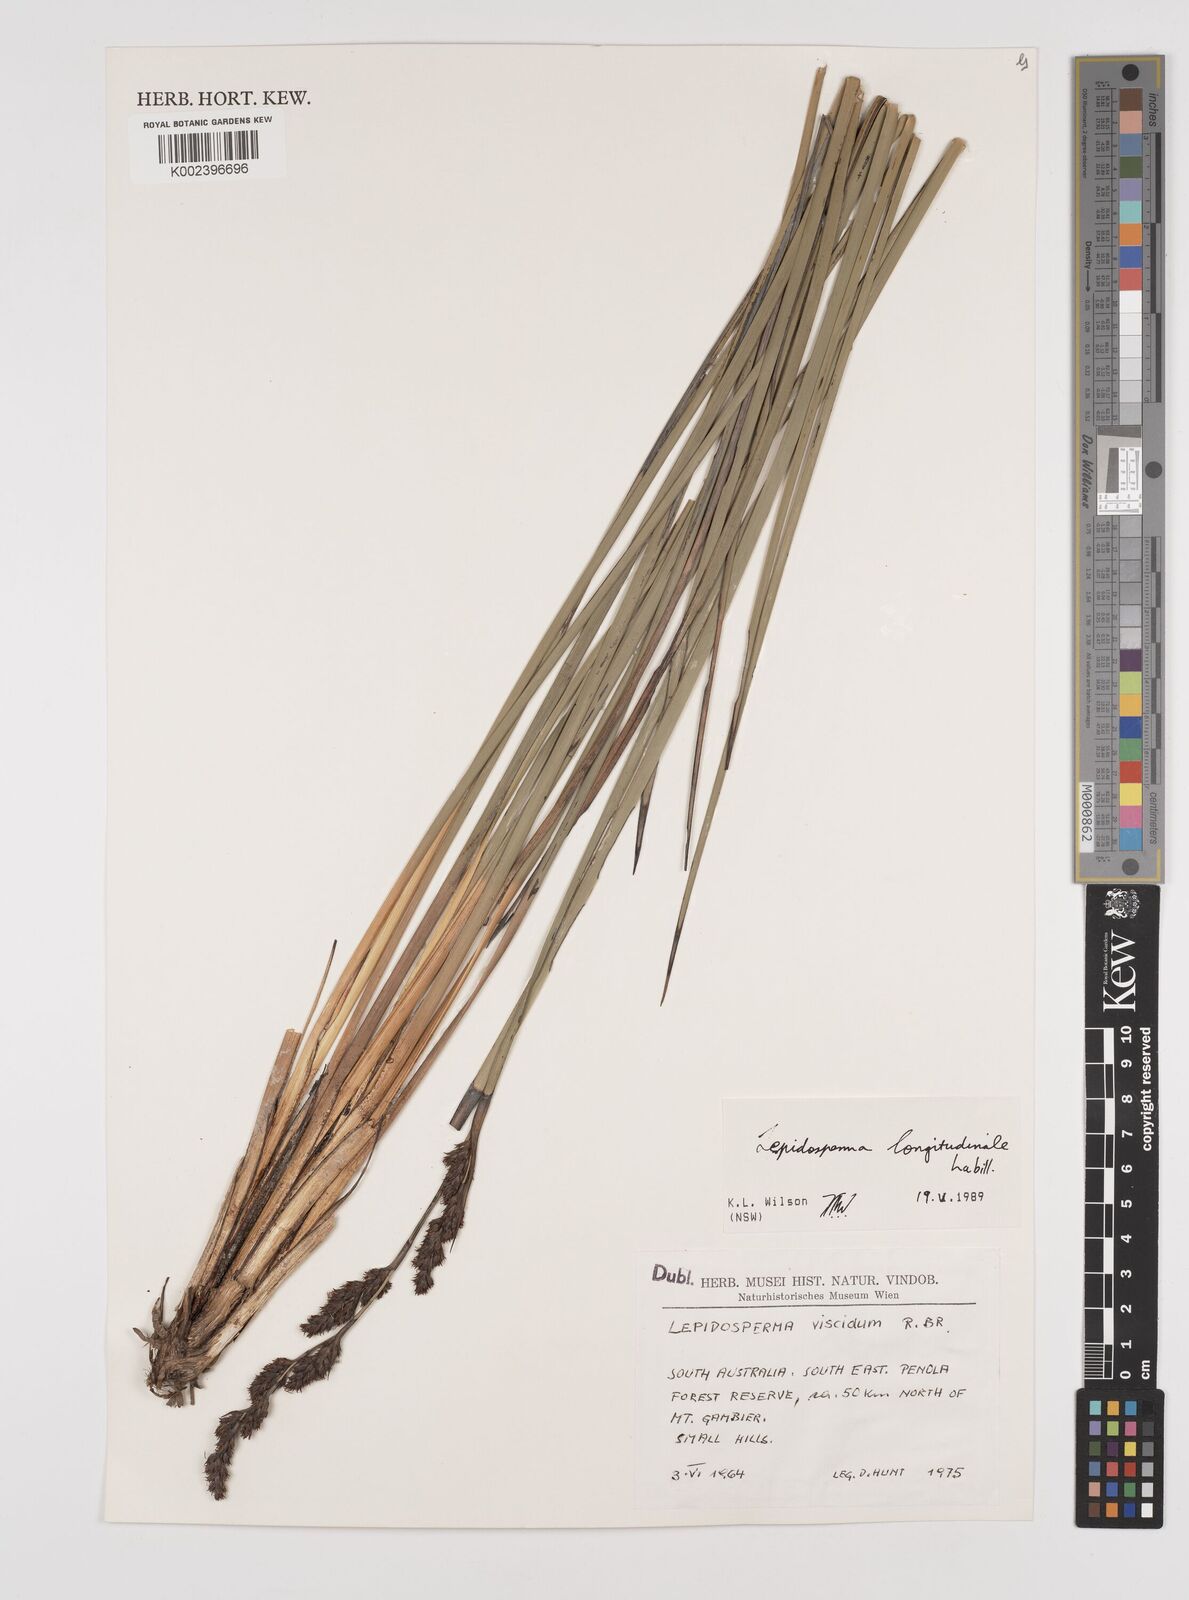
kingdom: Plantae
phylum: Tracheophyta
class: Liliopsida
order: Poales
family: Cyperaceae
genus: Lepidosperma
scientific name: Lepidosperma longitudinale
